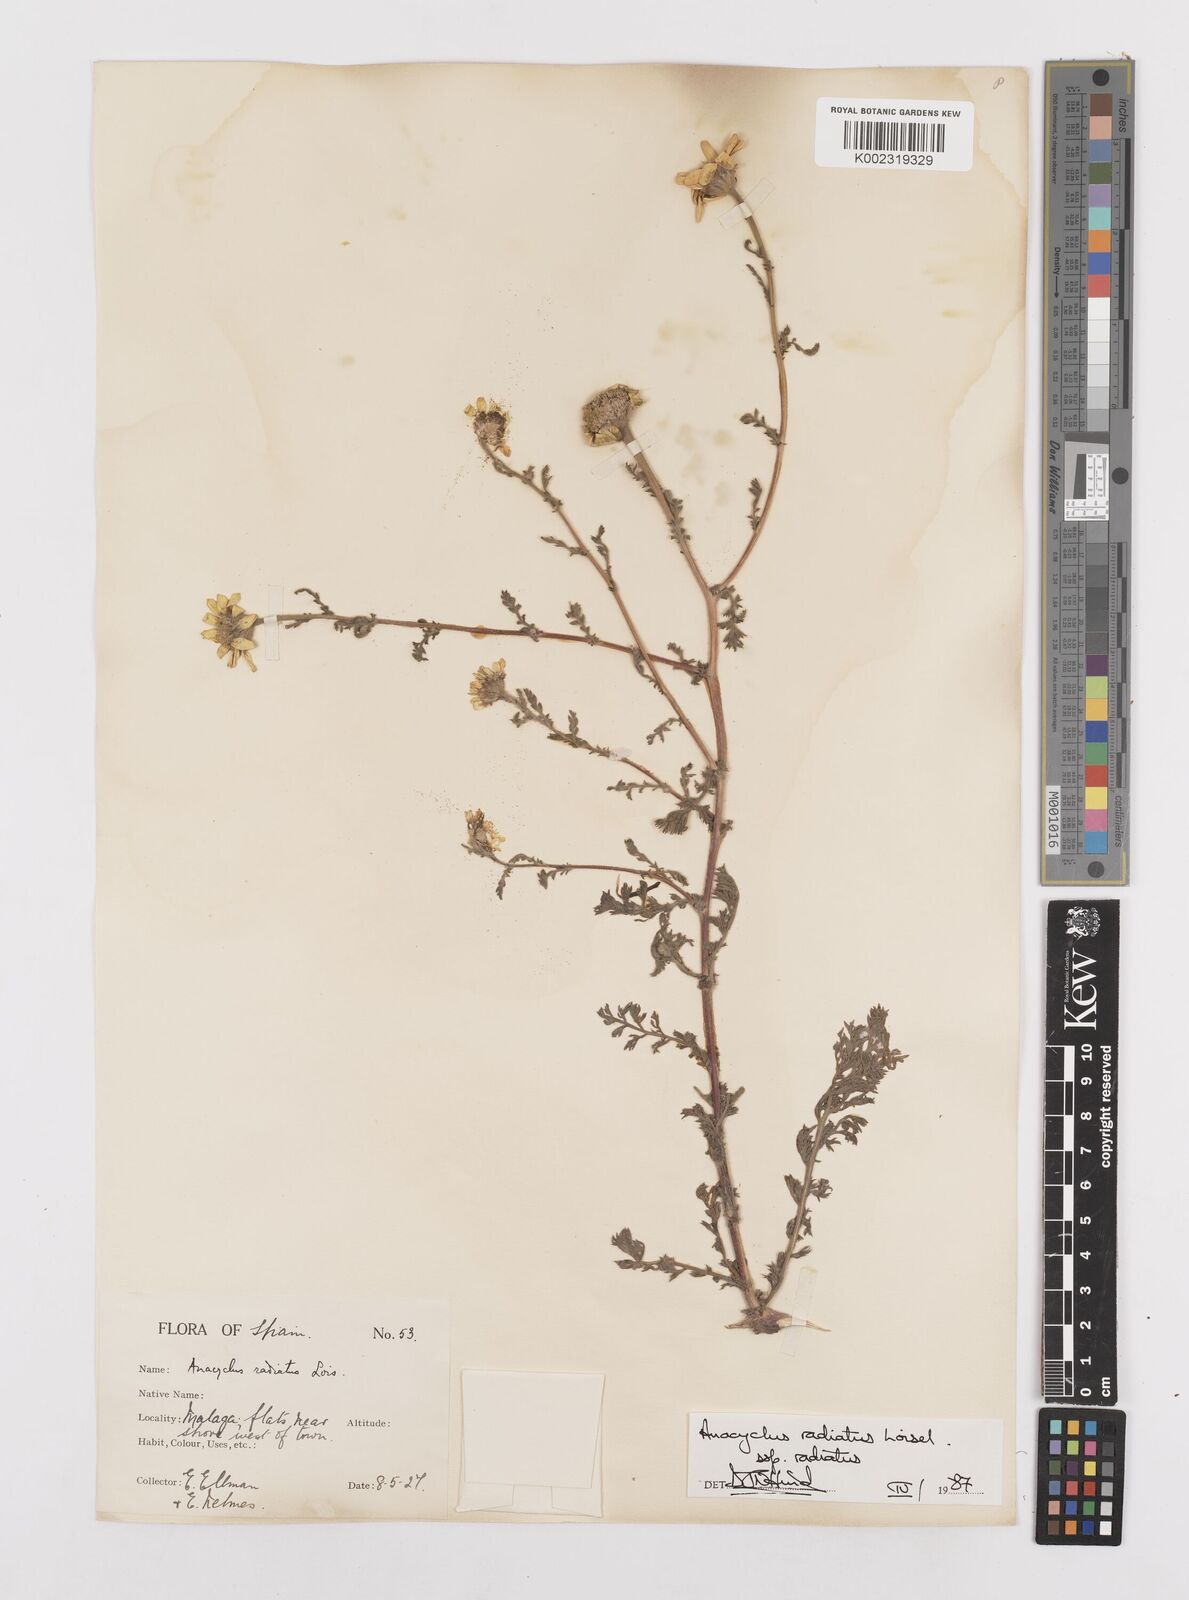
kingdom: Plantae
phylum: Tracheophyta
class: Magnoliopsida
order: Asterales
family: Asteraceae
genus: Anacyclus
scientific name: Anacyclus radiatus
